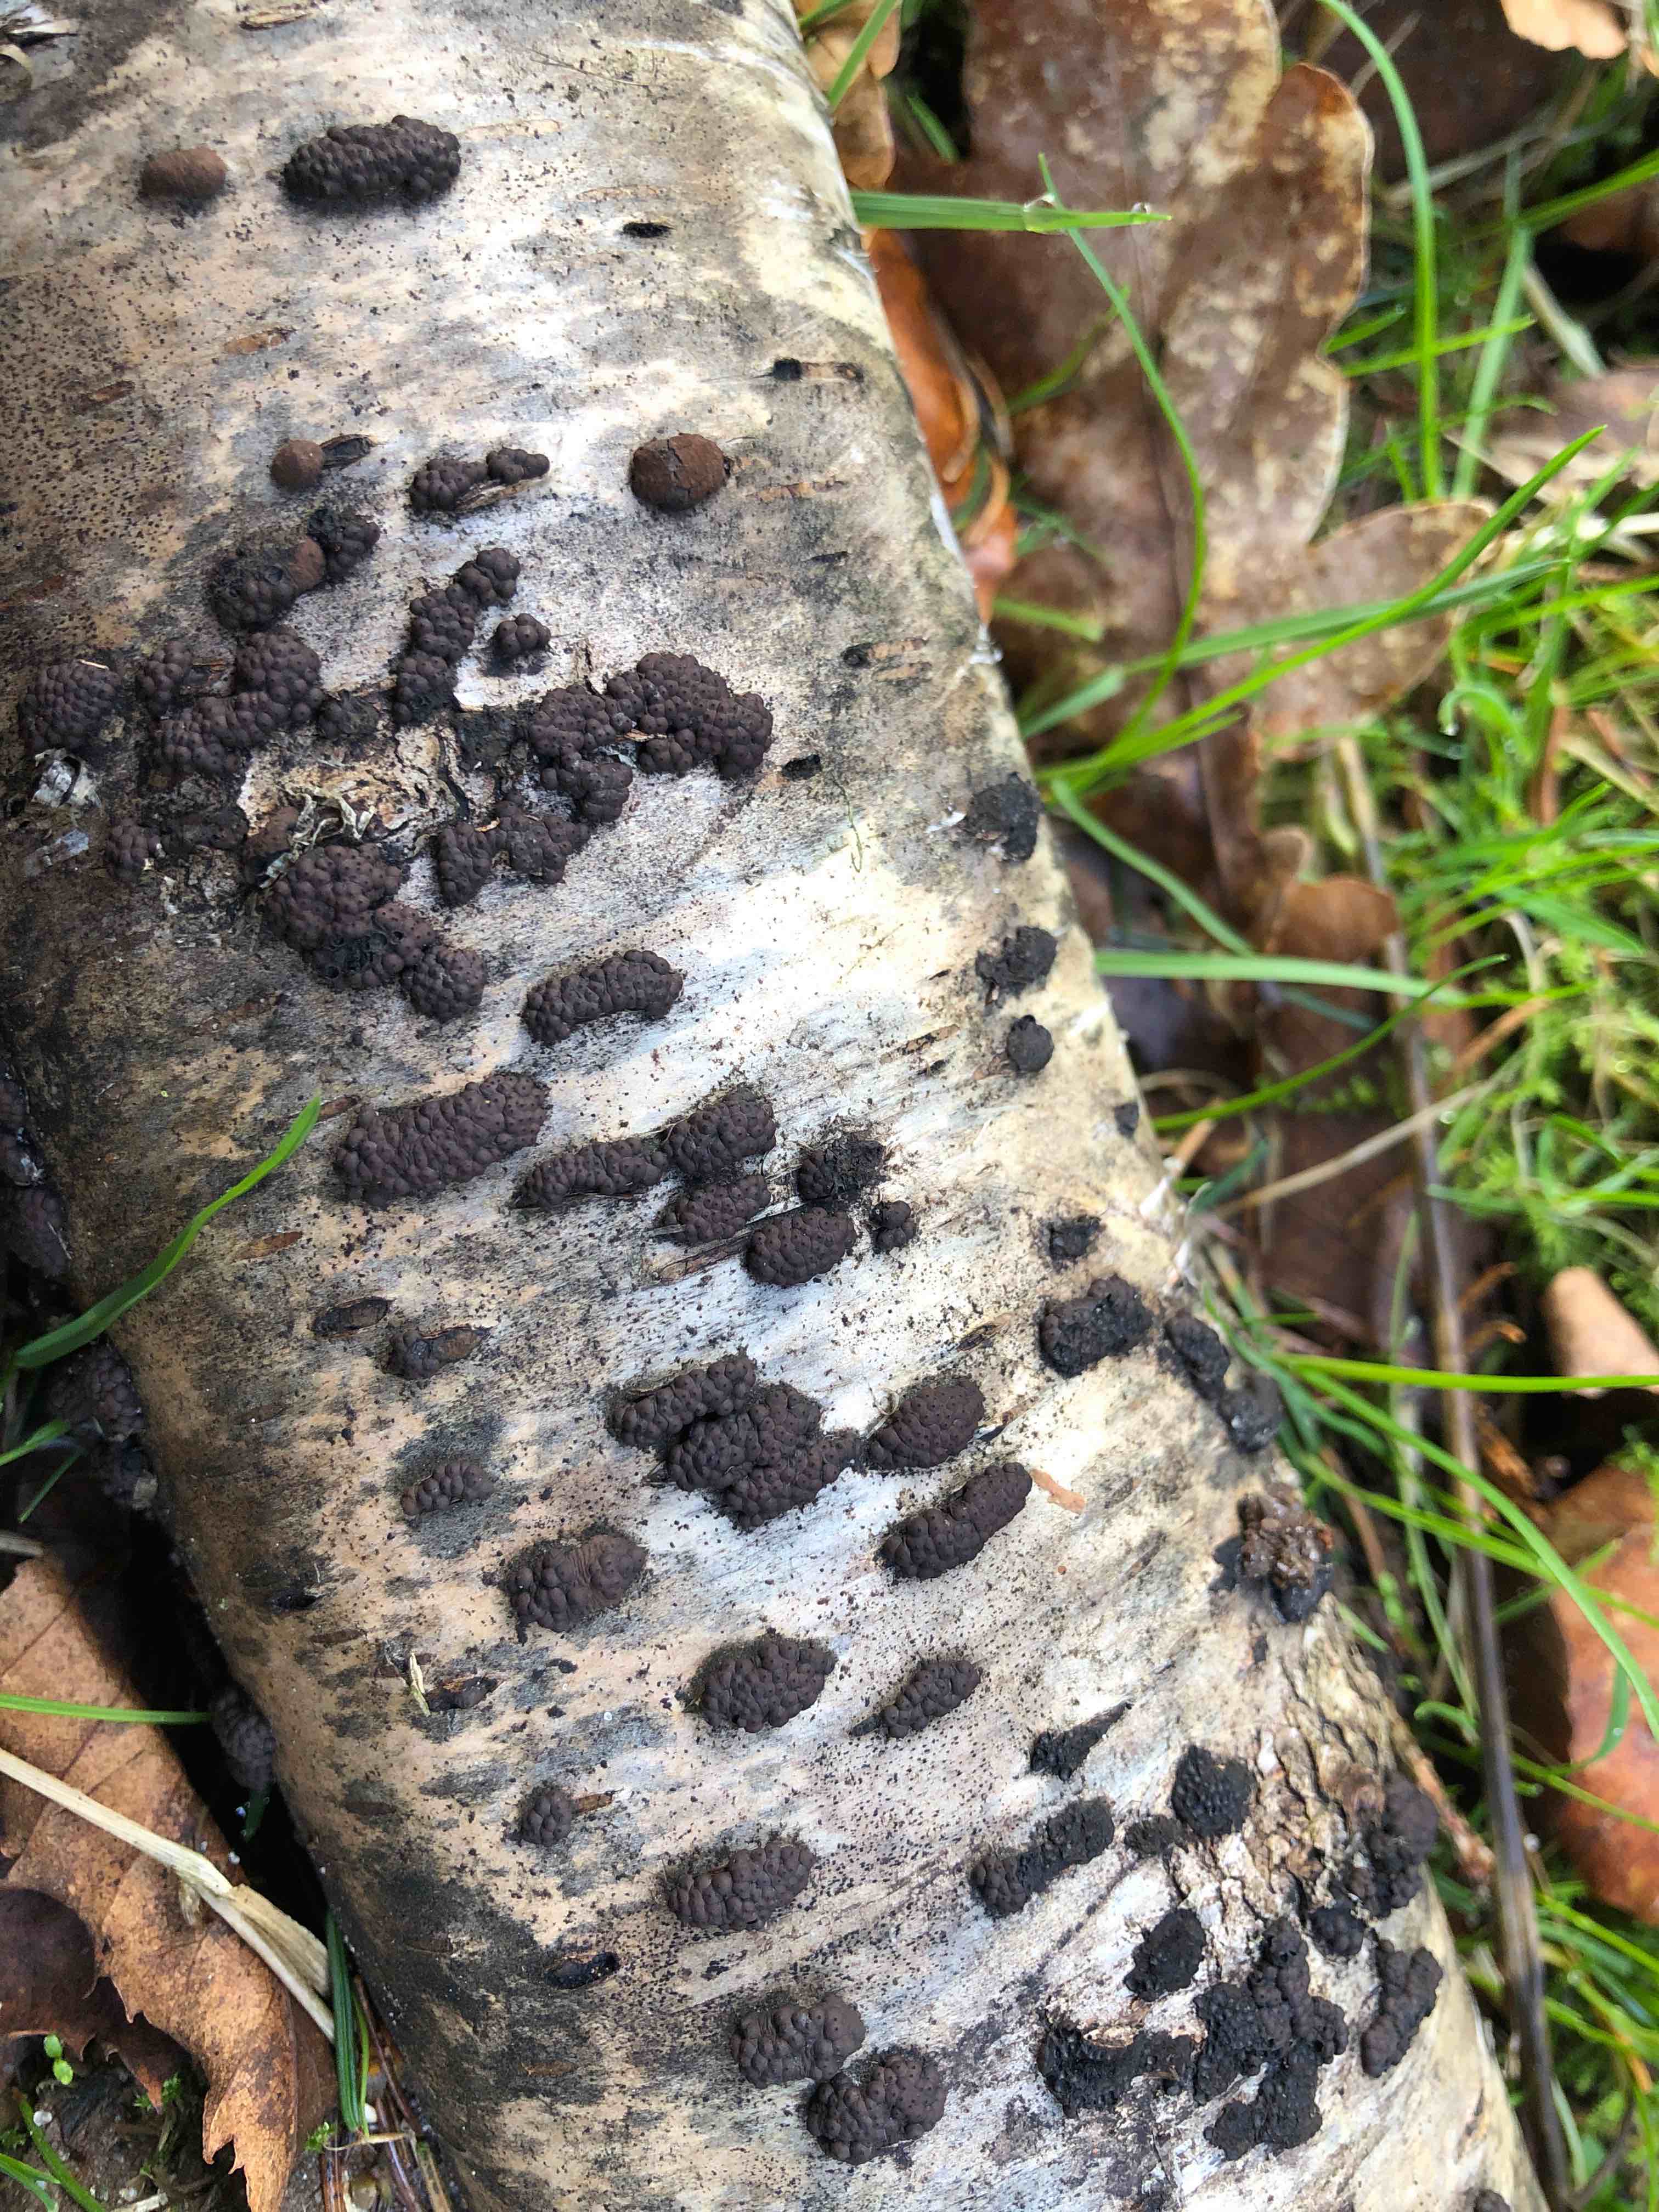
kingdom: Fungi
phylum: Ascomycota
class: Sordariomycetes
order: Xylariales
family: Hypoxylaceae
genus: Jackrogersella
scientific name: Jackrogersella multiformis
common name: foranderlig kulbær
